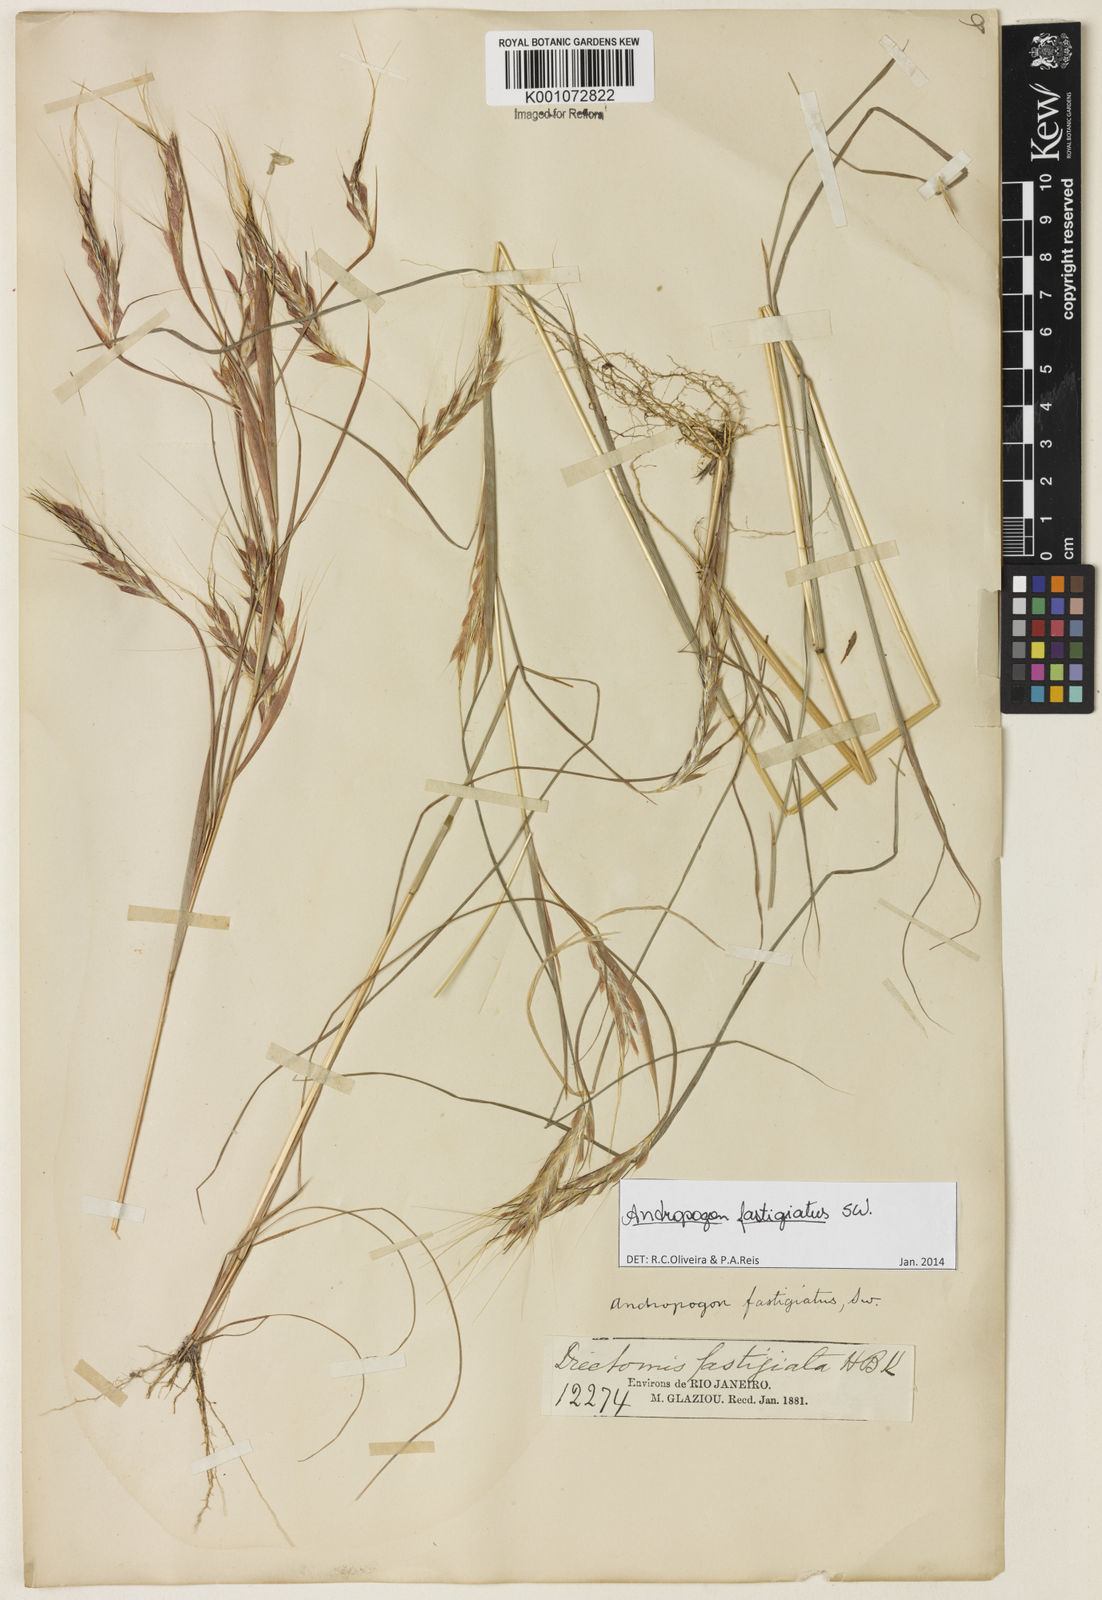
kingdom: Plantae
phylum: Tracheophyta
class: Liliopsida
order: Poales
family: Poaceae
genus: Diectomis
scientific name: Diectomis fastigiata
